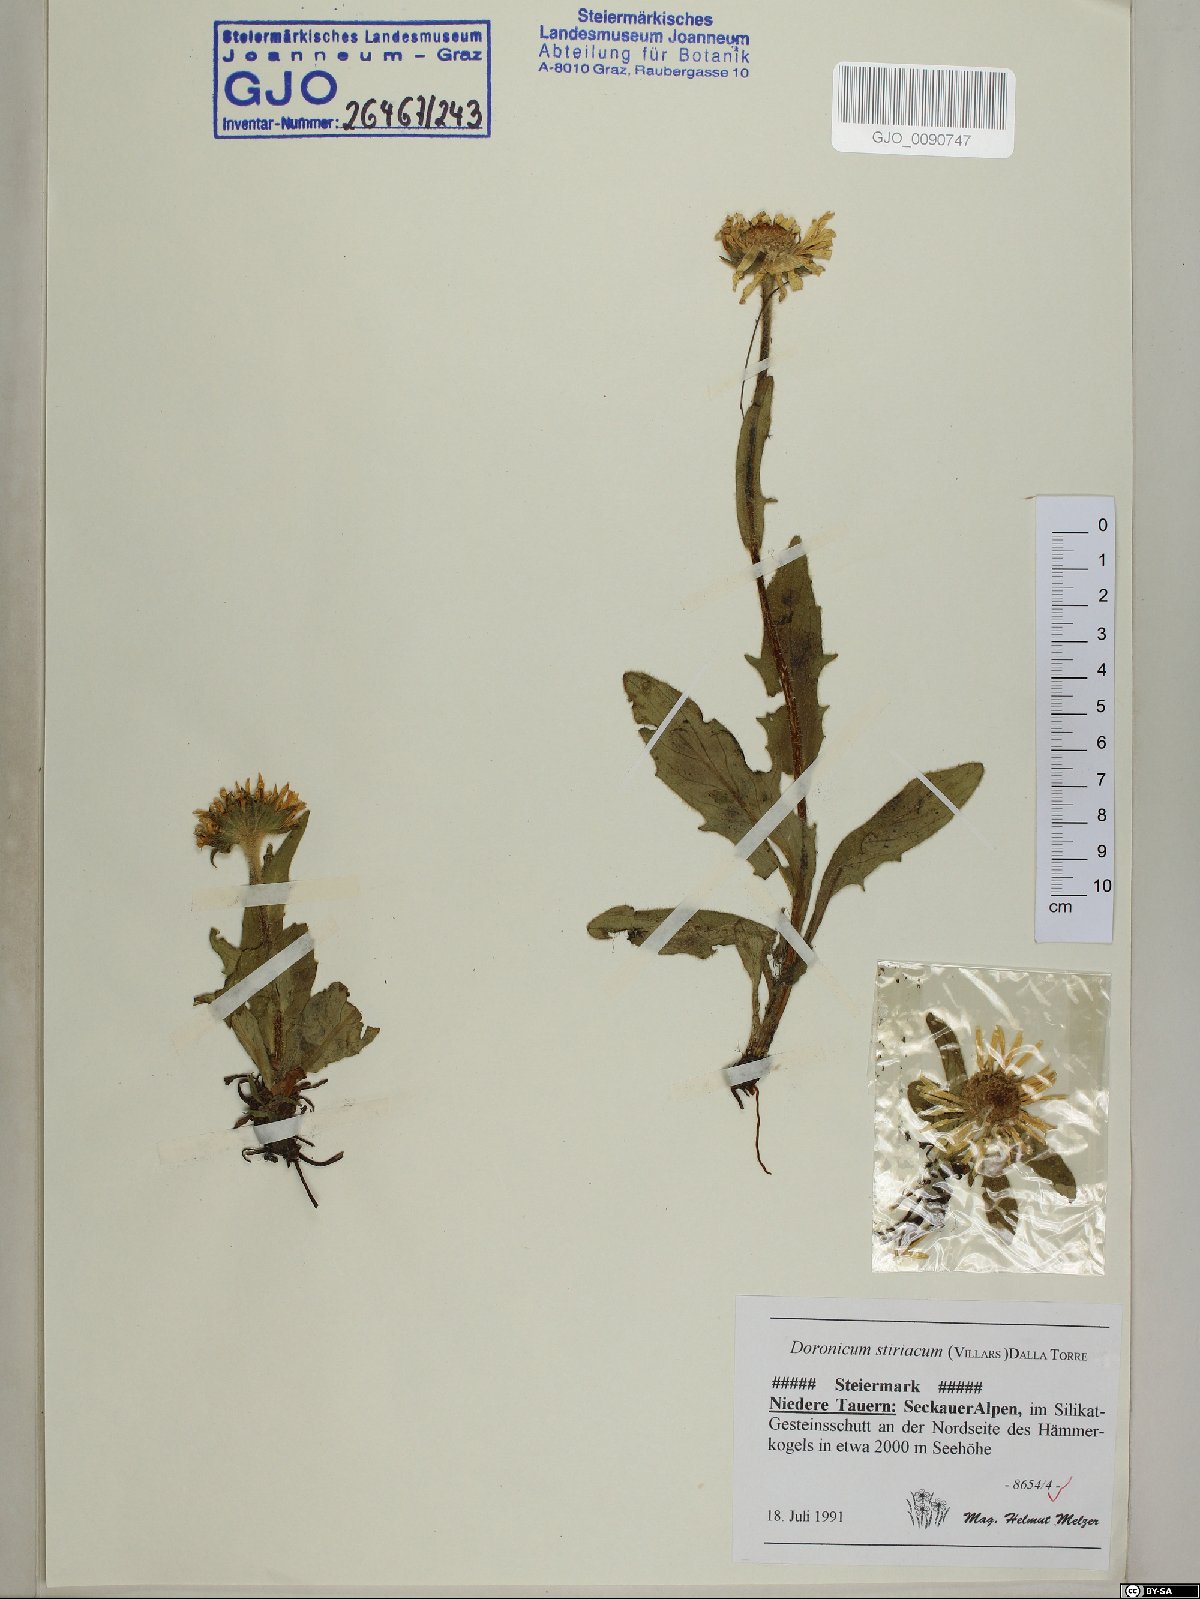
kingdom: Plantae
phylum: Tracheophyta
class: Magnoliopsida
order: Asterales
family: Asteraceae
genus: Doronicum
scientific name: Doronicum clusii
